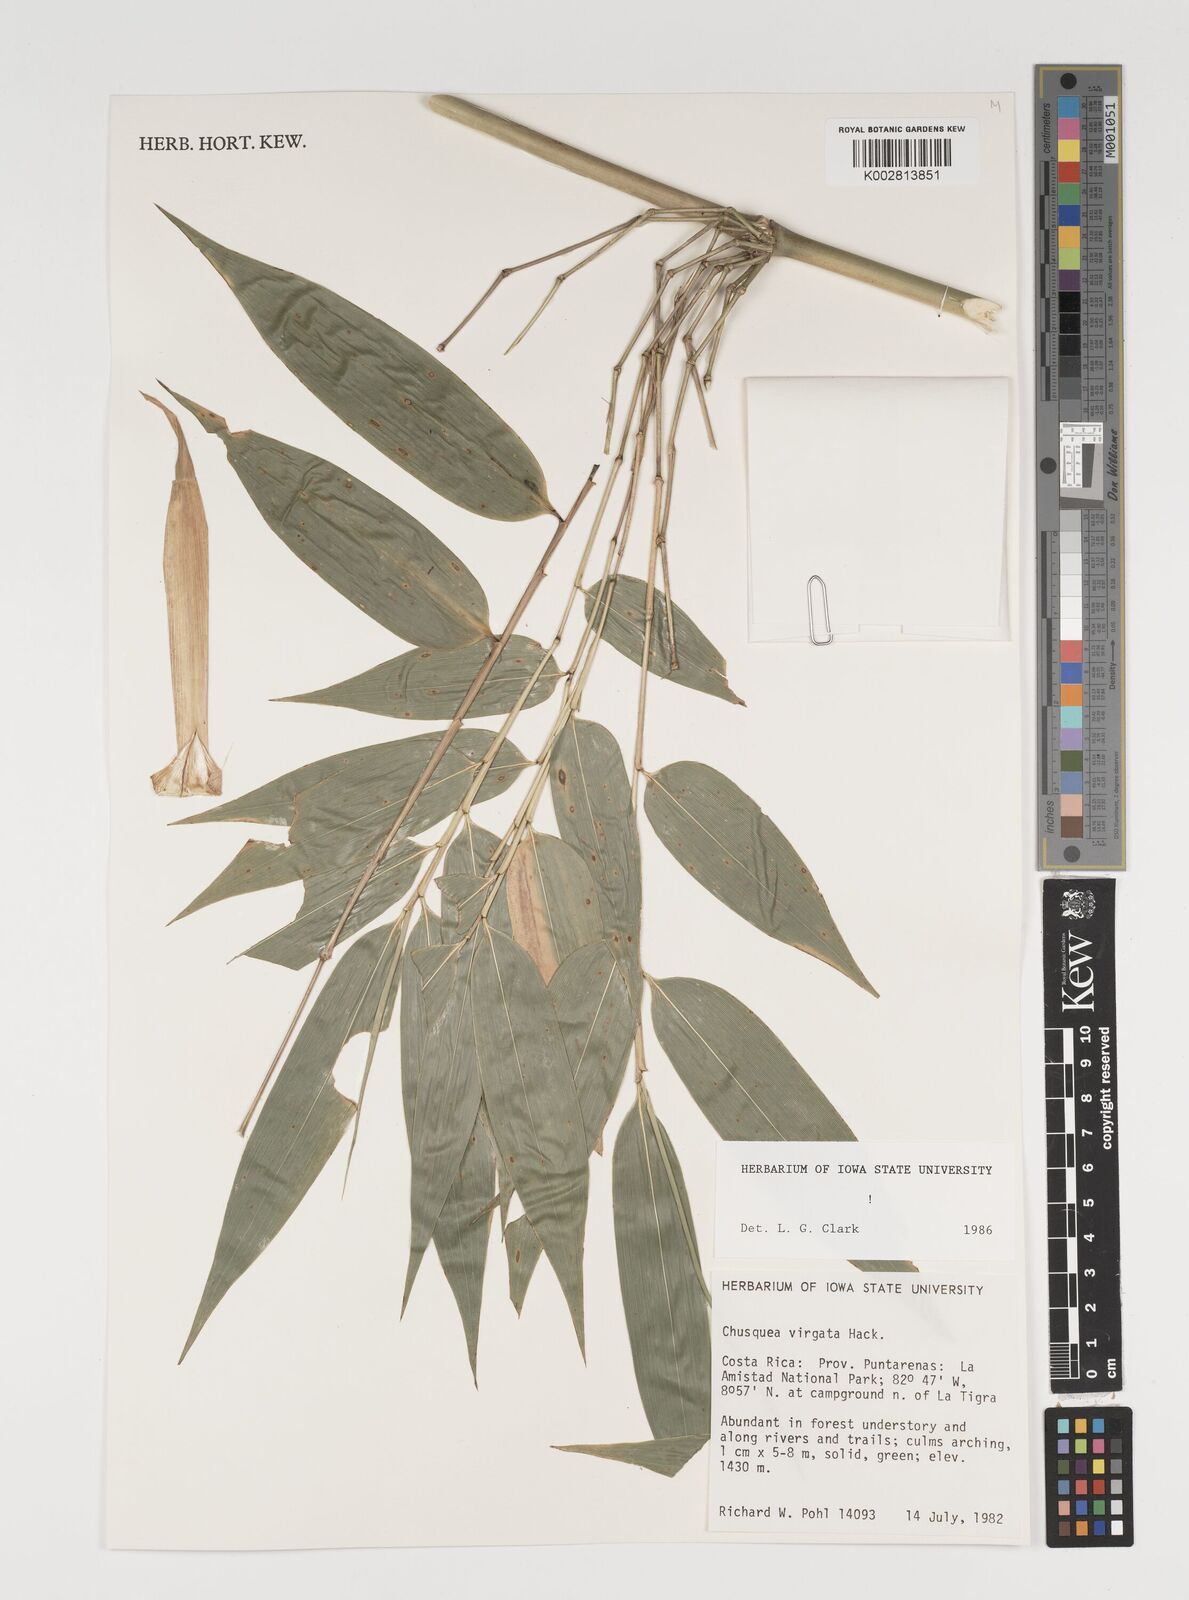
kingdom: Plantae
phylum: Tracheophyta
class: Liliopsida
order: Poales
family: Poaceae
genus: Chusquea
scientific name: Chusquea virgata
